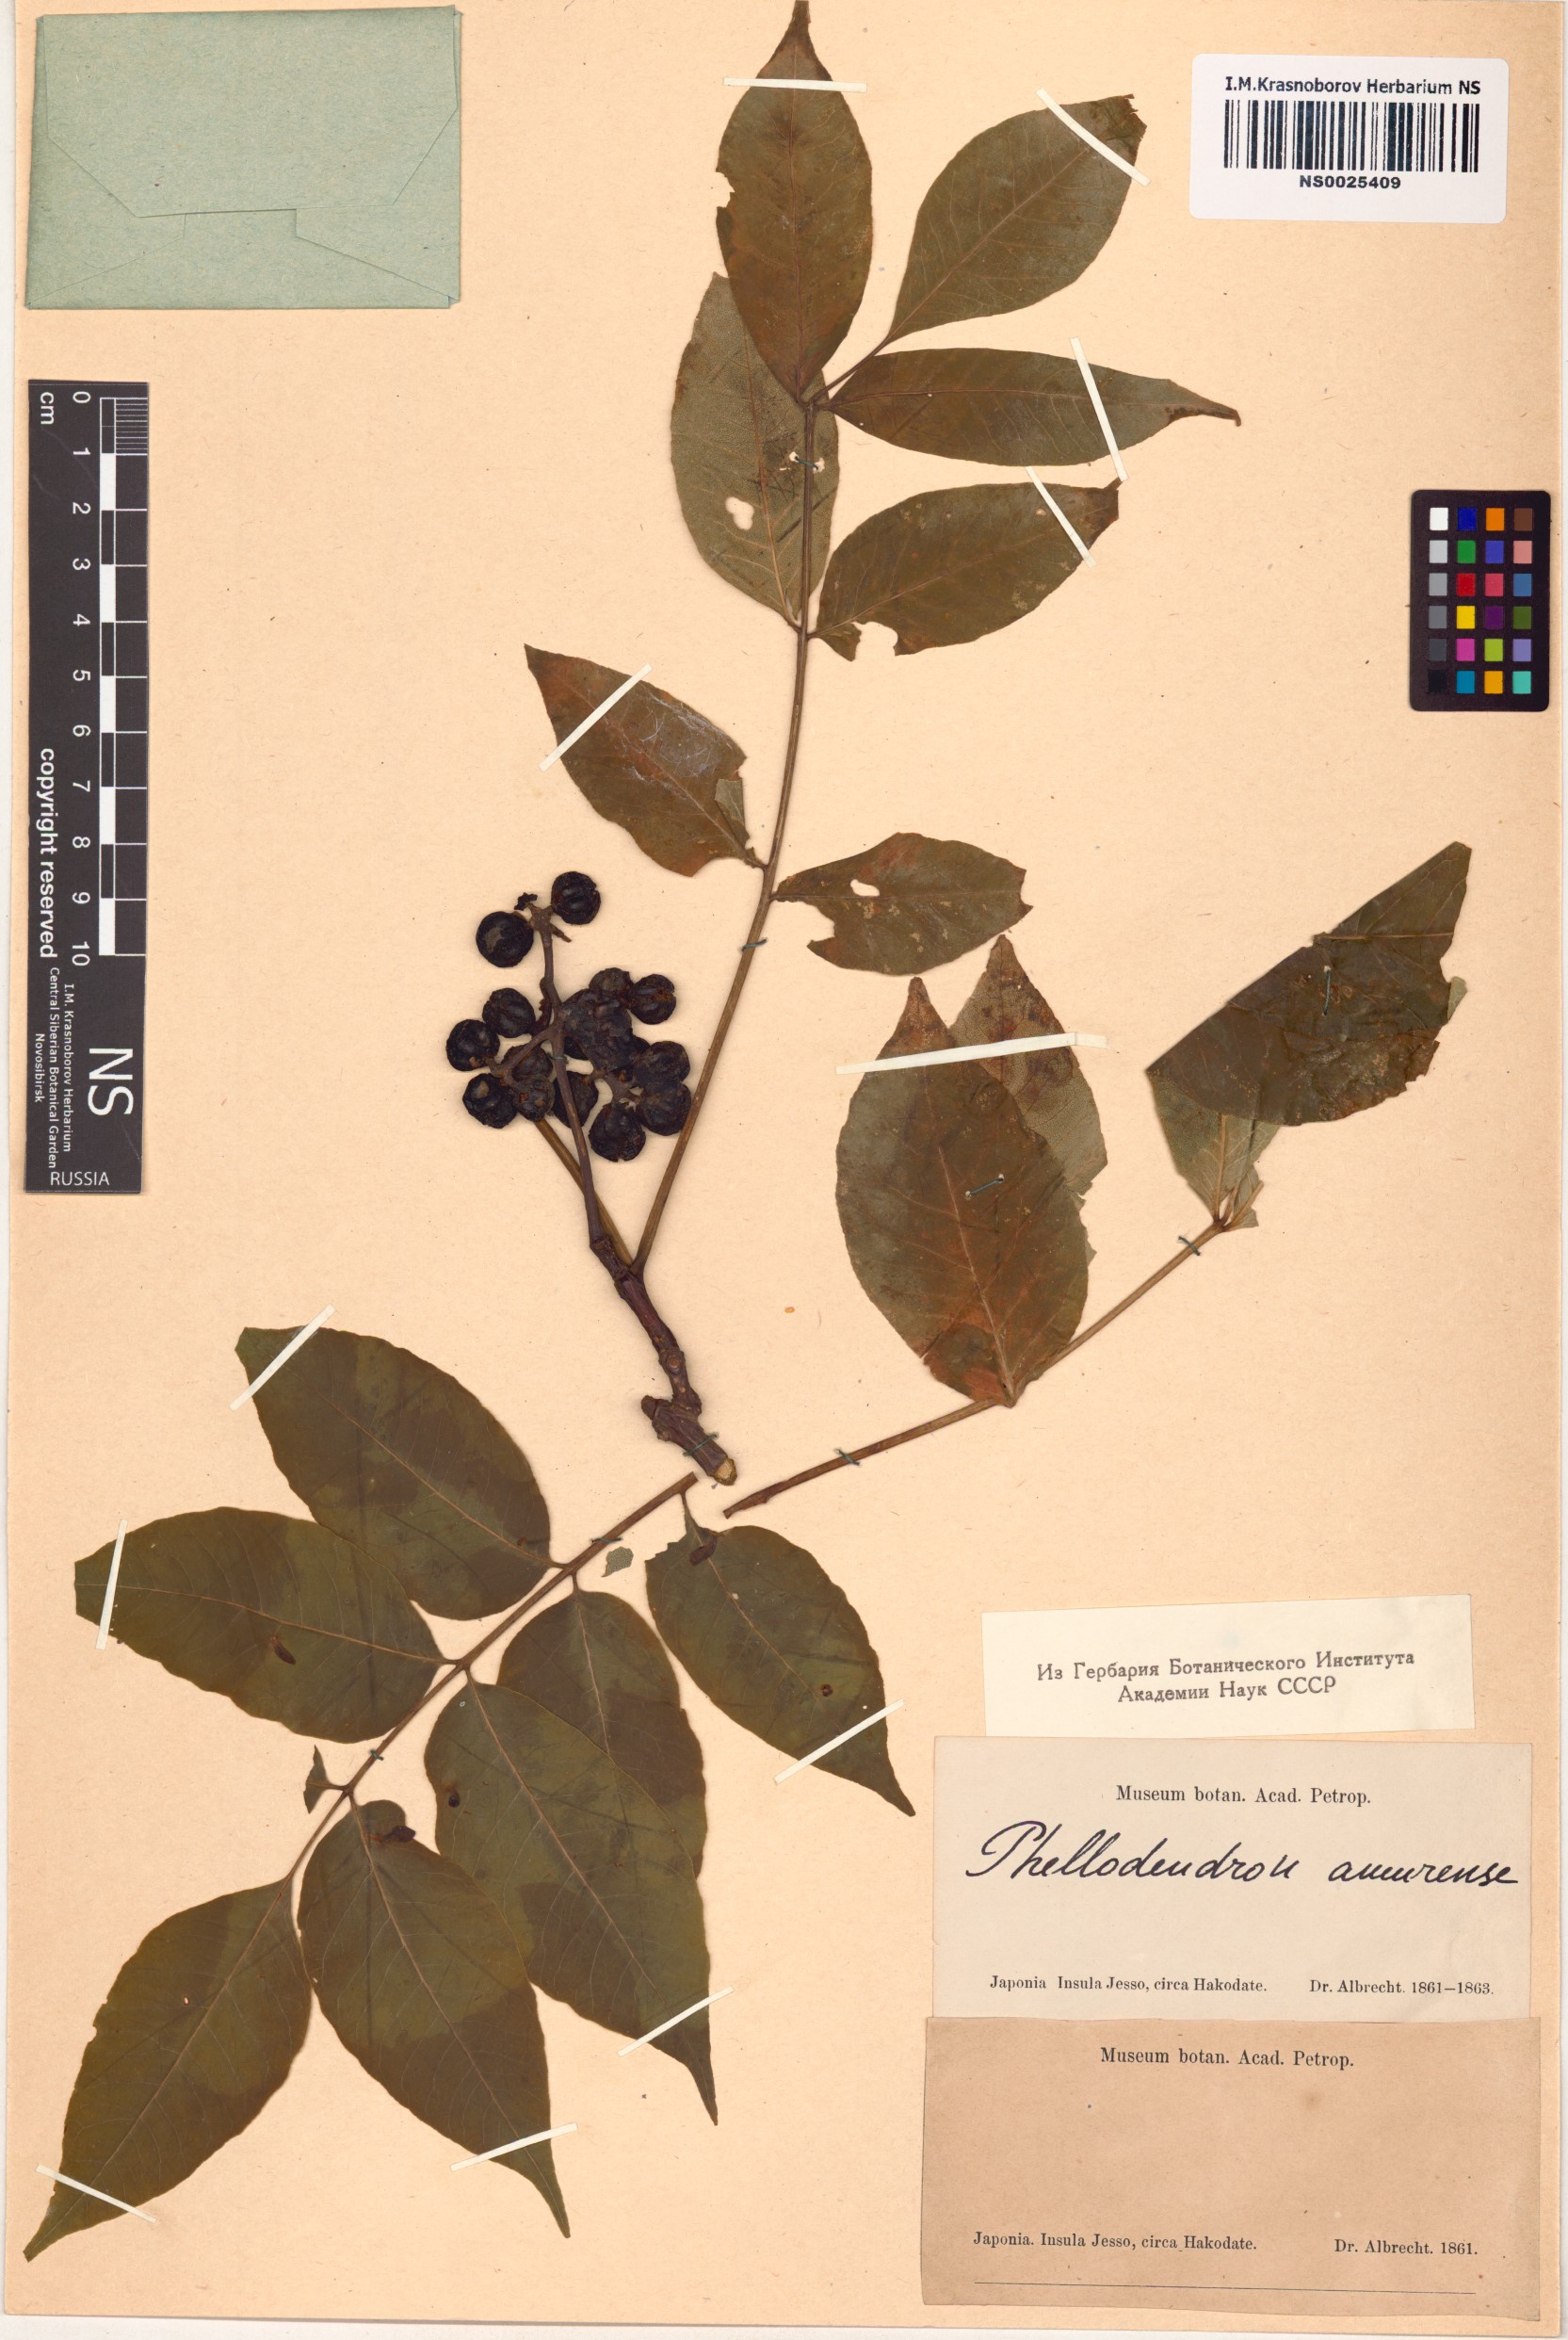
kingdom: Plantae
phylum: Tracheophyta
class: Magnoliopsida
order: Sapindales
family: Rutaceae
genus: Phellodendron
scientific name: Phellodendron amurense
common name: Amur corktree
